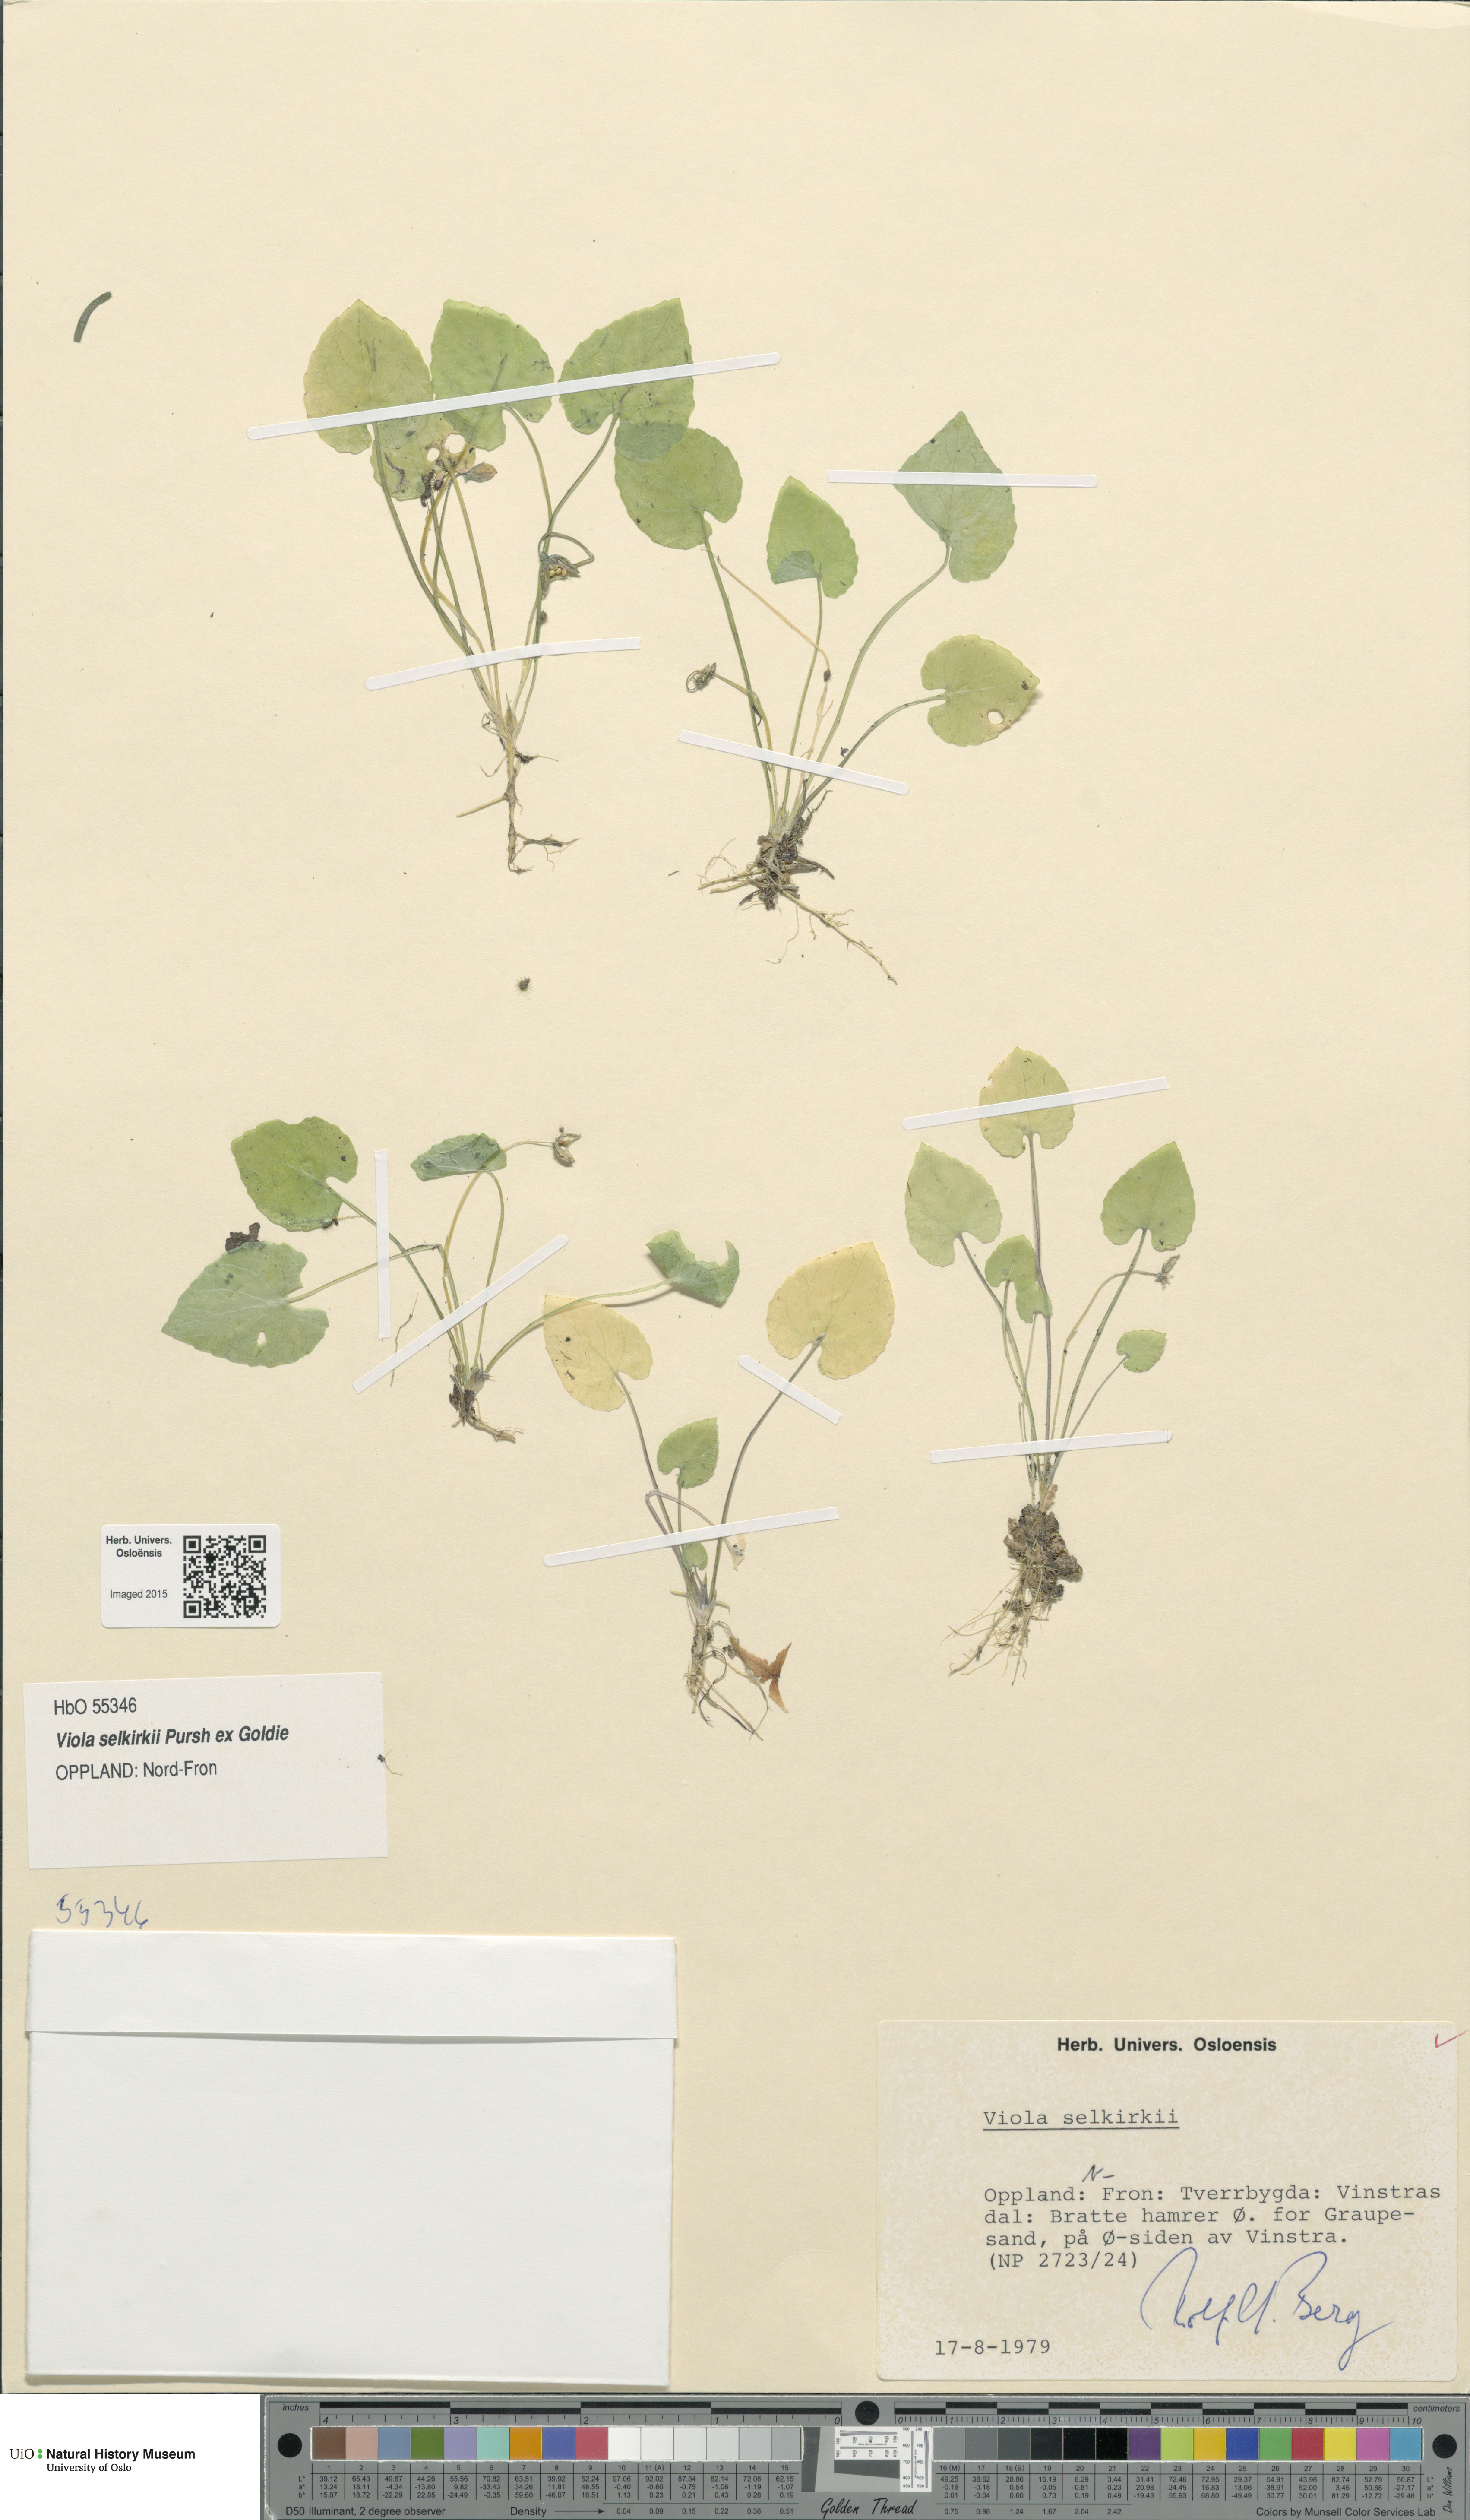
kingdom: Plantae
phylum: Tracheophyta
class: Magnoliopsida
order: Malpighiales
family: Violaceae
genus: Viola
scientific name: Viola selkirkii
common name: Selkirk's violet
